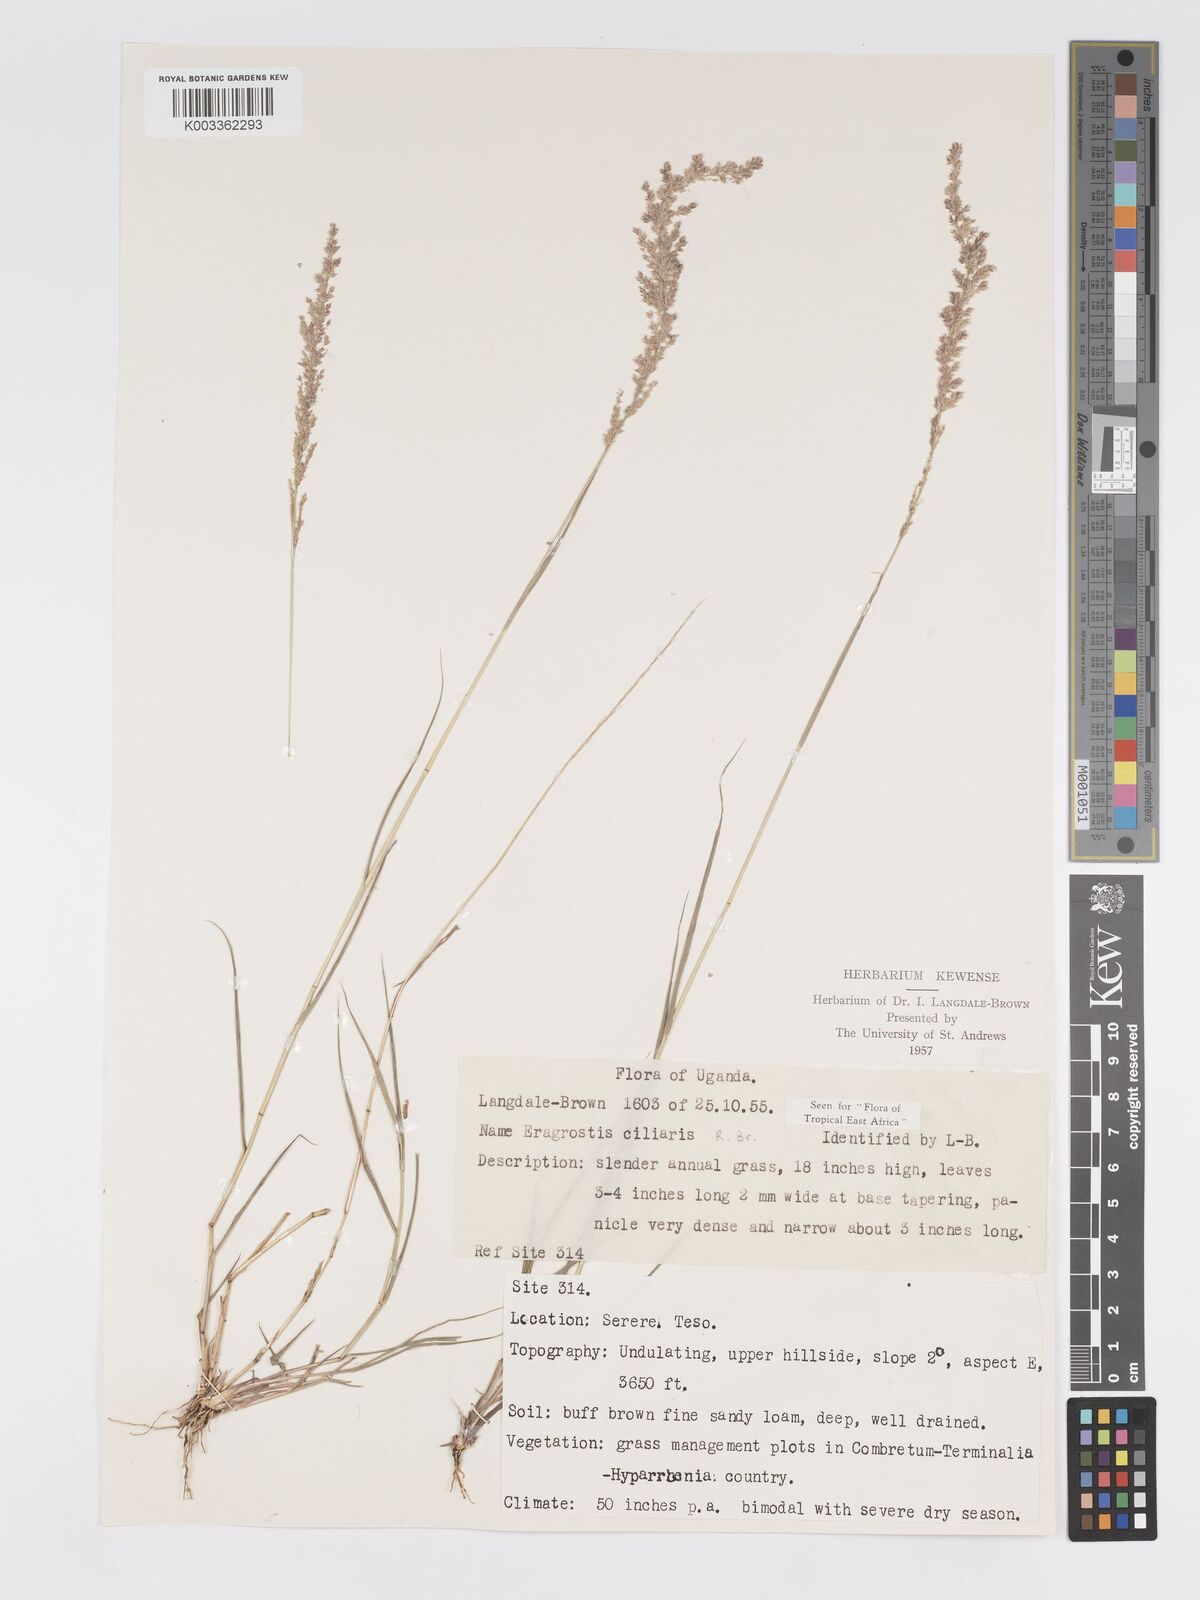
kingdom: Plantae
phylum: Tracheophyta
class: Liliopsida
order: Poales
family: Poaceae
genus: Eragrostis
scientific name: Eragrostis ciliaris
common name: Gophertail lovegrass
